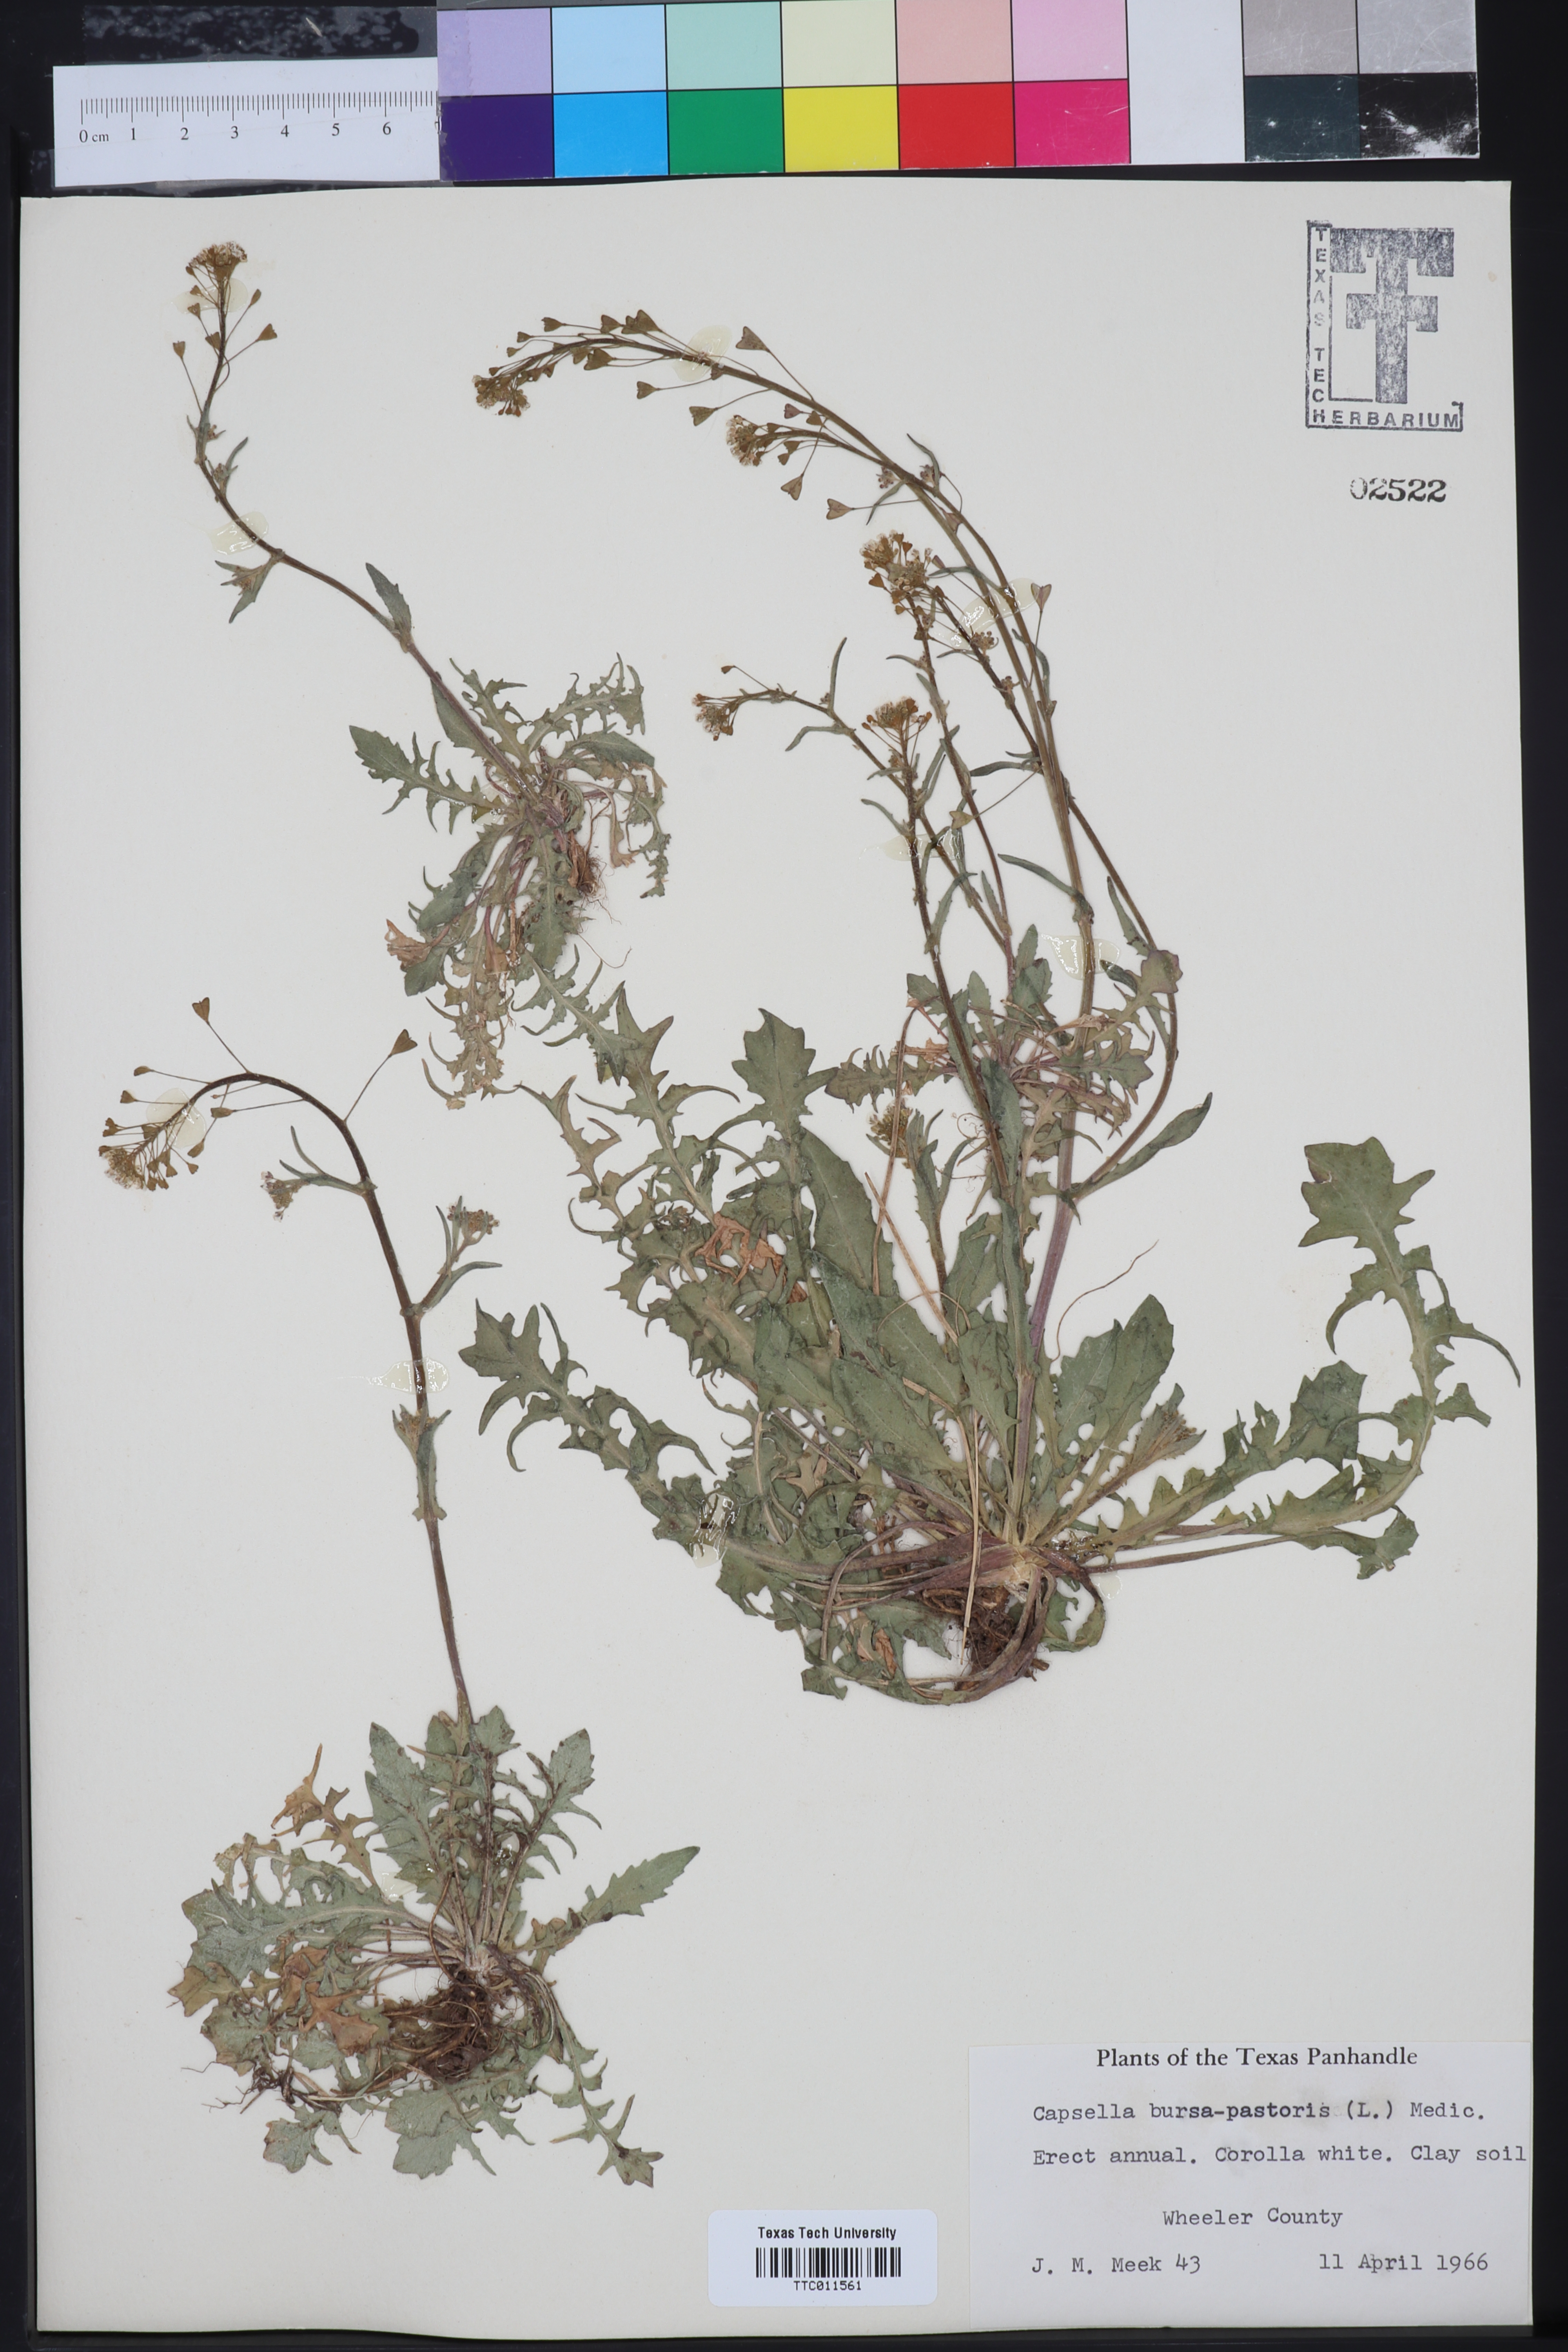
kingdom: Plantae
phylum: Tracheophyta
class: Magnoliopsida
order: Brassicales
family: Brassicaceae
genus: Capsella
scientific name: Capsella bursa-pastoris
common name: Shepherd's purse
